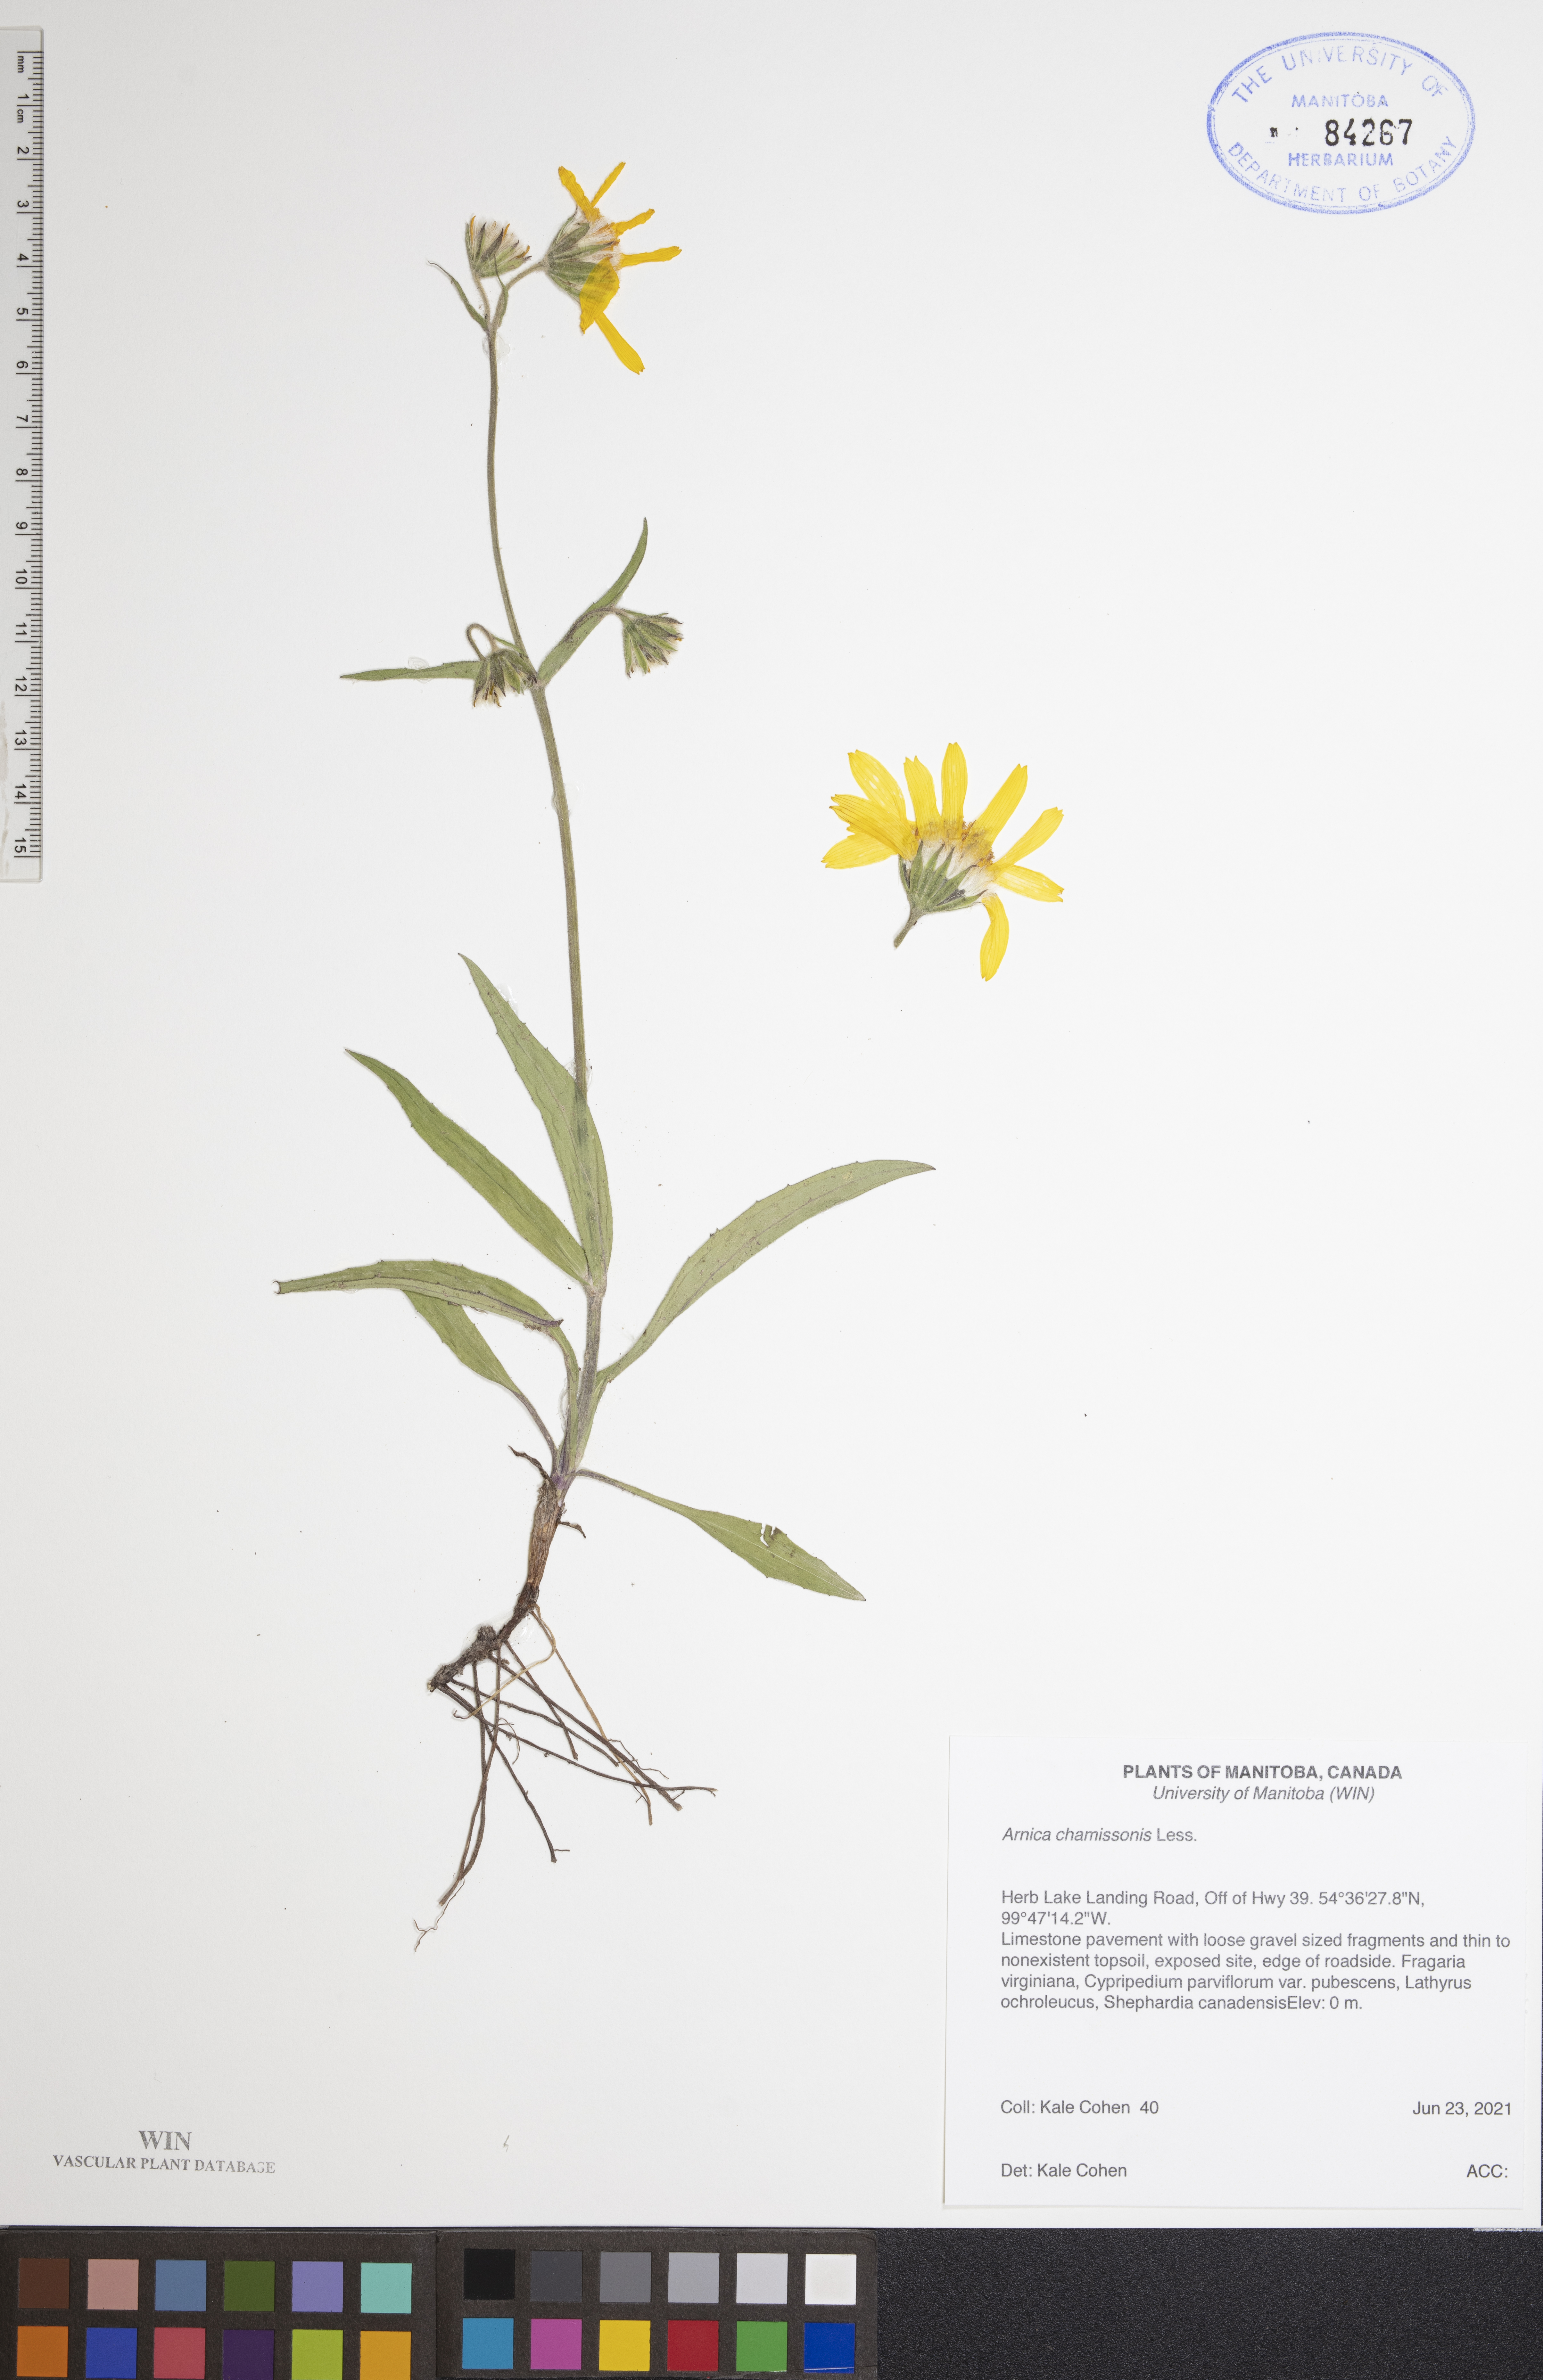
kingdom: Plantae
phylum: Tracheophyta
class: Magnoliopsida
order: Asterales
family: Asteraceae
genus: Arnica
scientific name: Arnica chamissonis
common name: Leafy arnica
